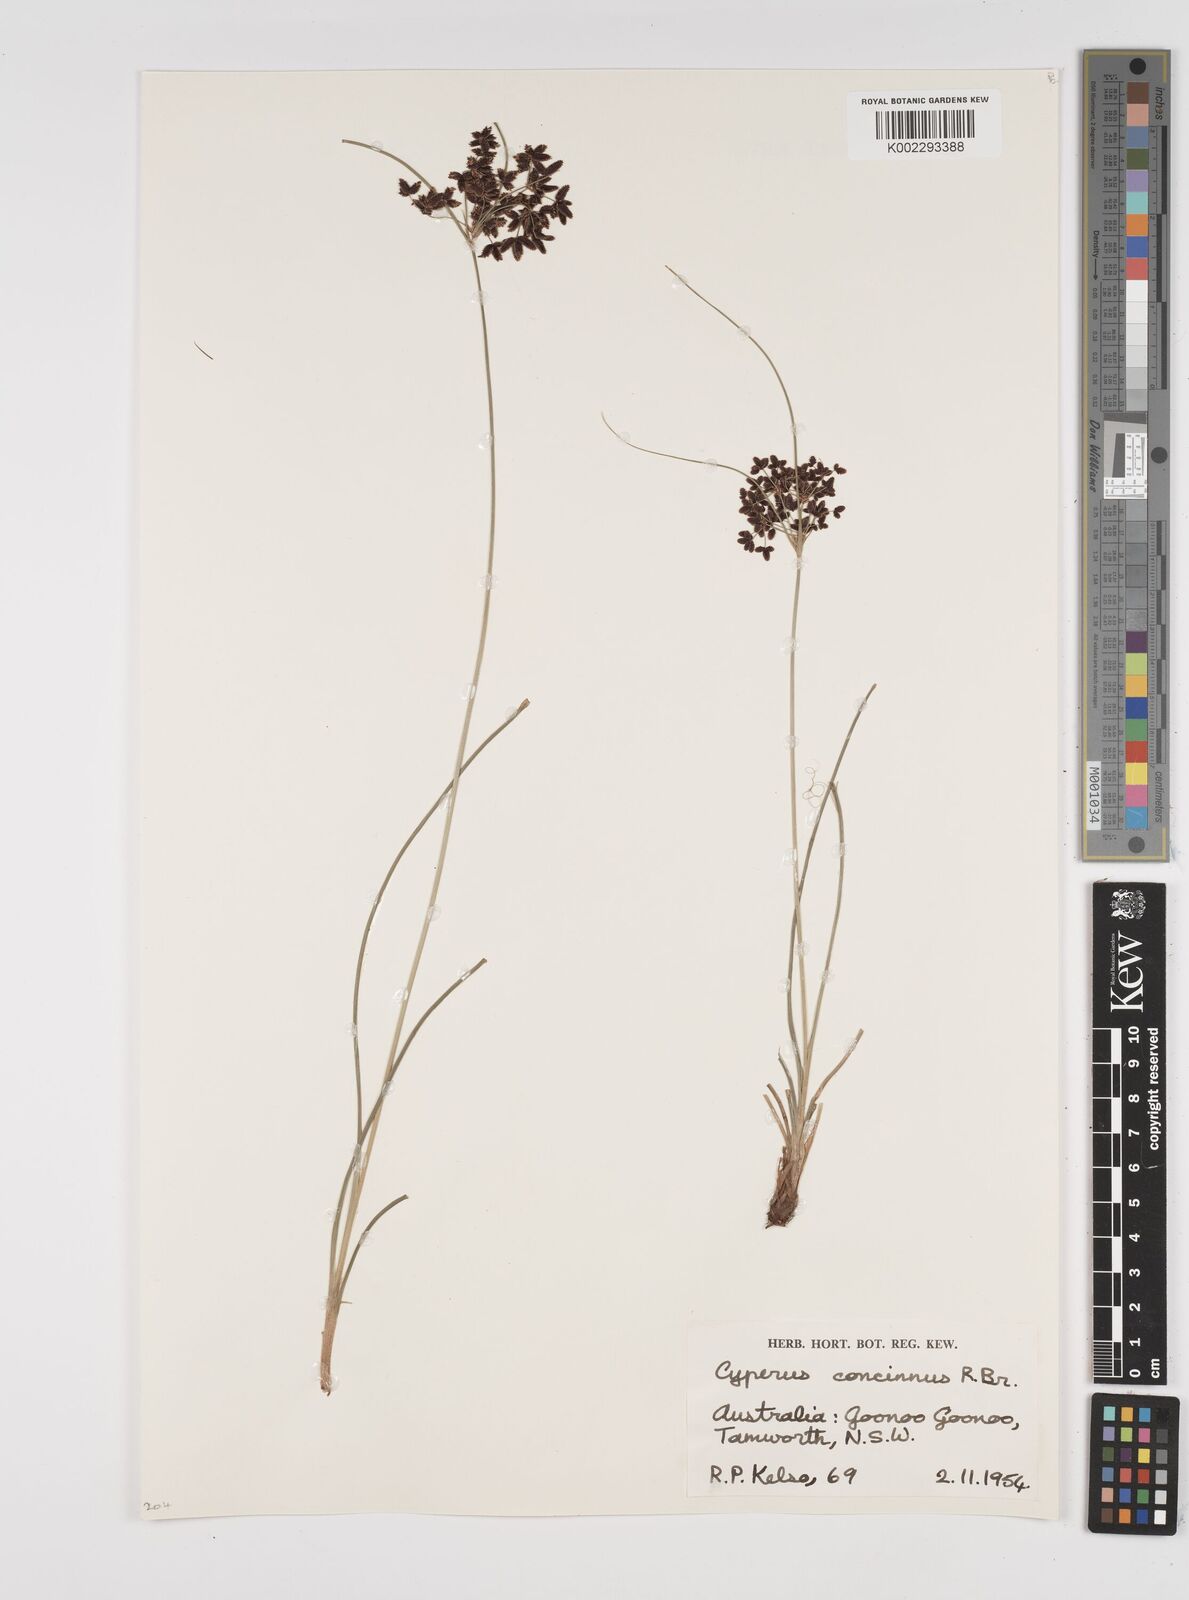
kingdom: Plantae
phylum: Tracheophyta
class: Liliopsida
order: Poales
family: Cyperaceae
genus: Cyperus
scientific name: Cyperus concinnus
